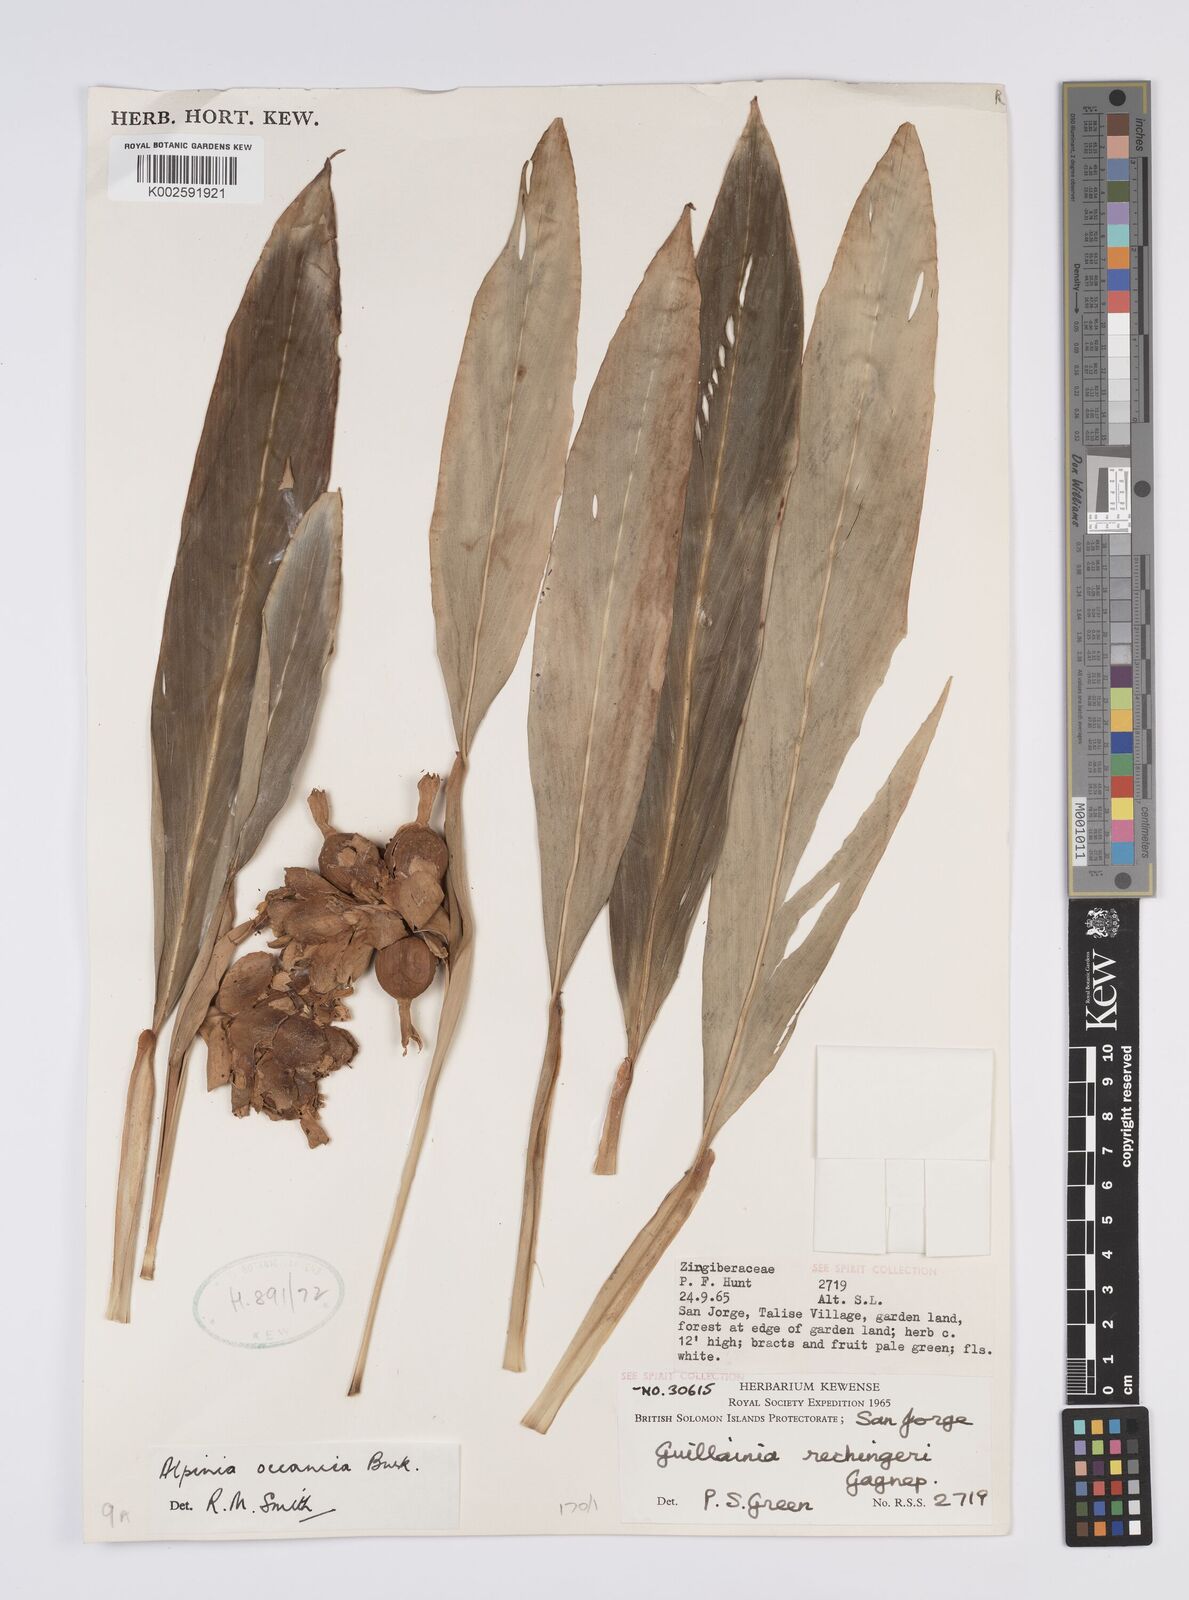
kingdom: Plantae
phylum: Tracheophyta
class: Liliopsida
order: Zingiberales
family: Zingiberaceae
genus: Alpinia
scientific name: Alpinia oceanica
